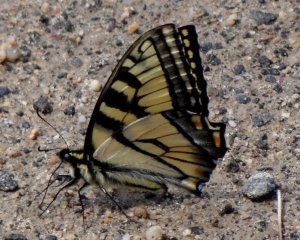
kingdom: Animalia
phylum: Arthropoda
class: Insecta
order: Lepidoptera
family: Papilionidae
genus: Pterourus
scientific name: Pterourus canadensis
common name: Canadian Tiger Swallowtail
